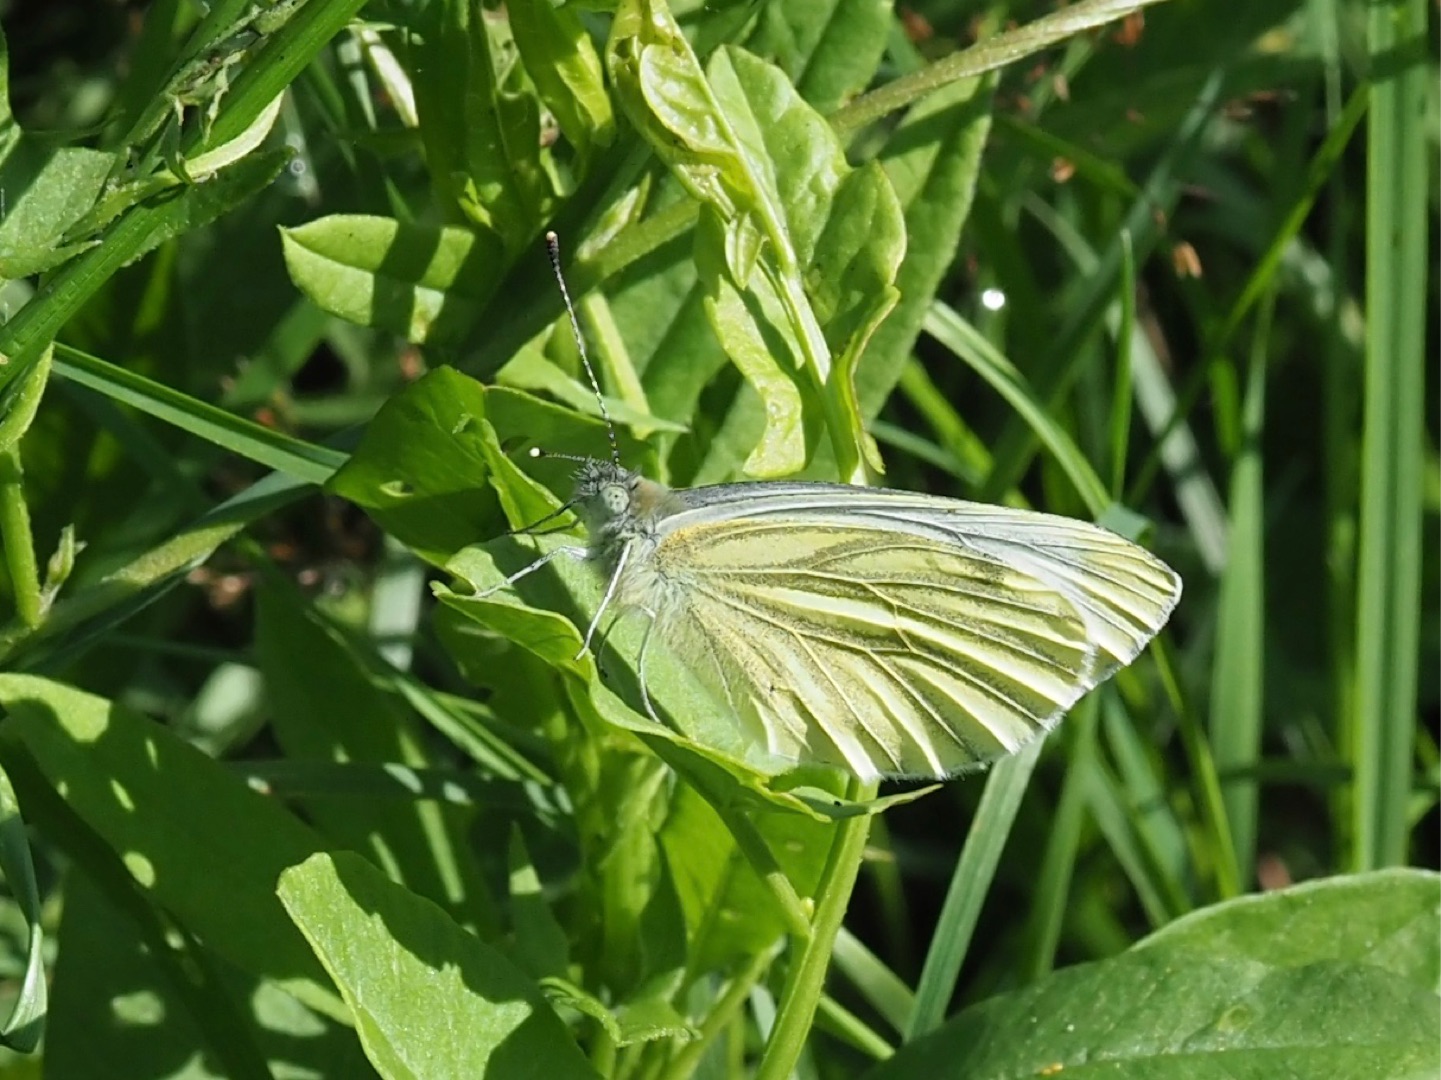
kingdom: Animalia
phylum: Arthropoda
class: Insecta
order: Lepidoptera
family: Pieridae
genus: Pieris
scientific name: Pieris napi
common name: Grønåret kålsommerfugl
